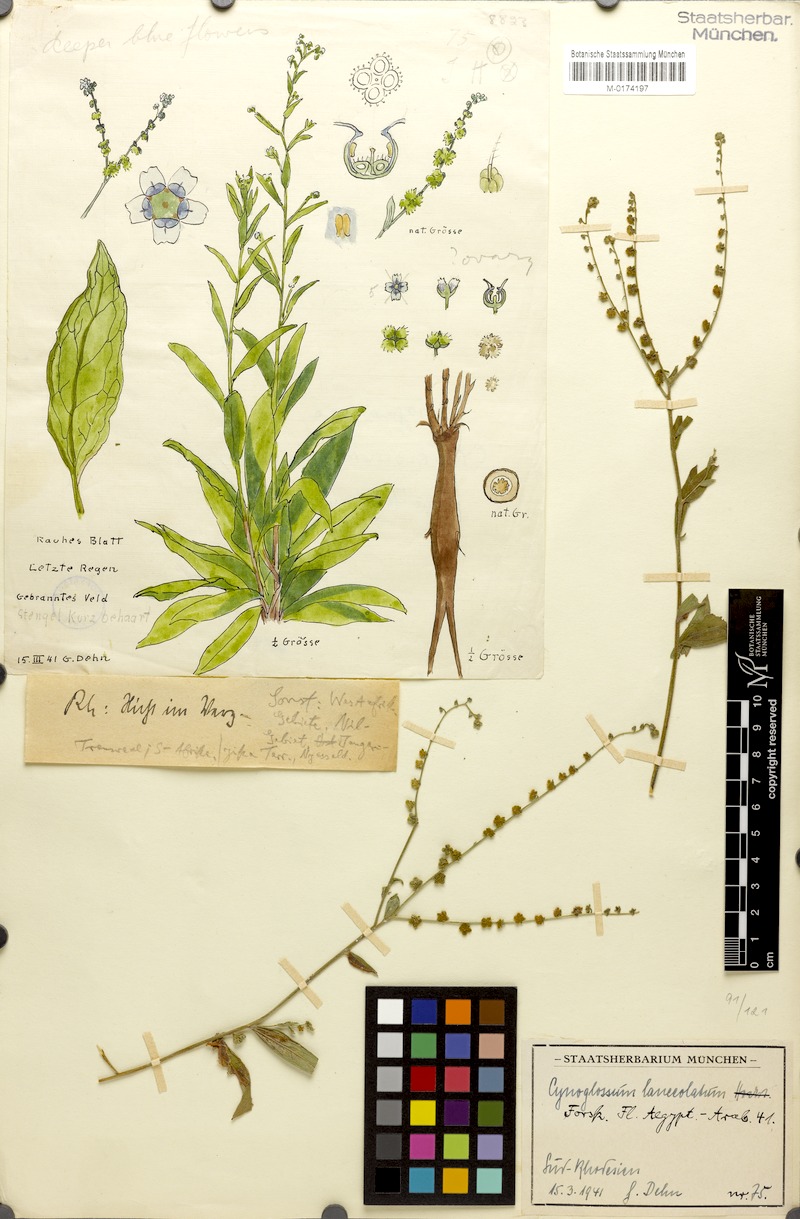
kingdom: Plantae
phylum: Tracheophyta
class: Magnoliopsida
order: Boraginales
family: Boraginaceae
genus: Paracynoglossum
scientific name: Paracynoglossum lanceolatum
